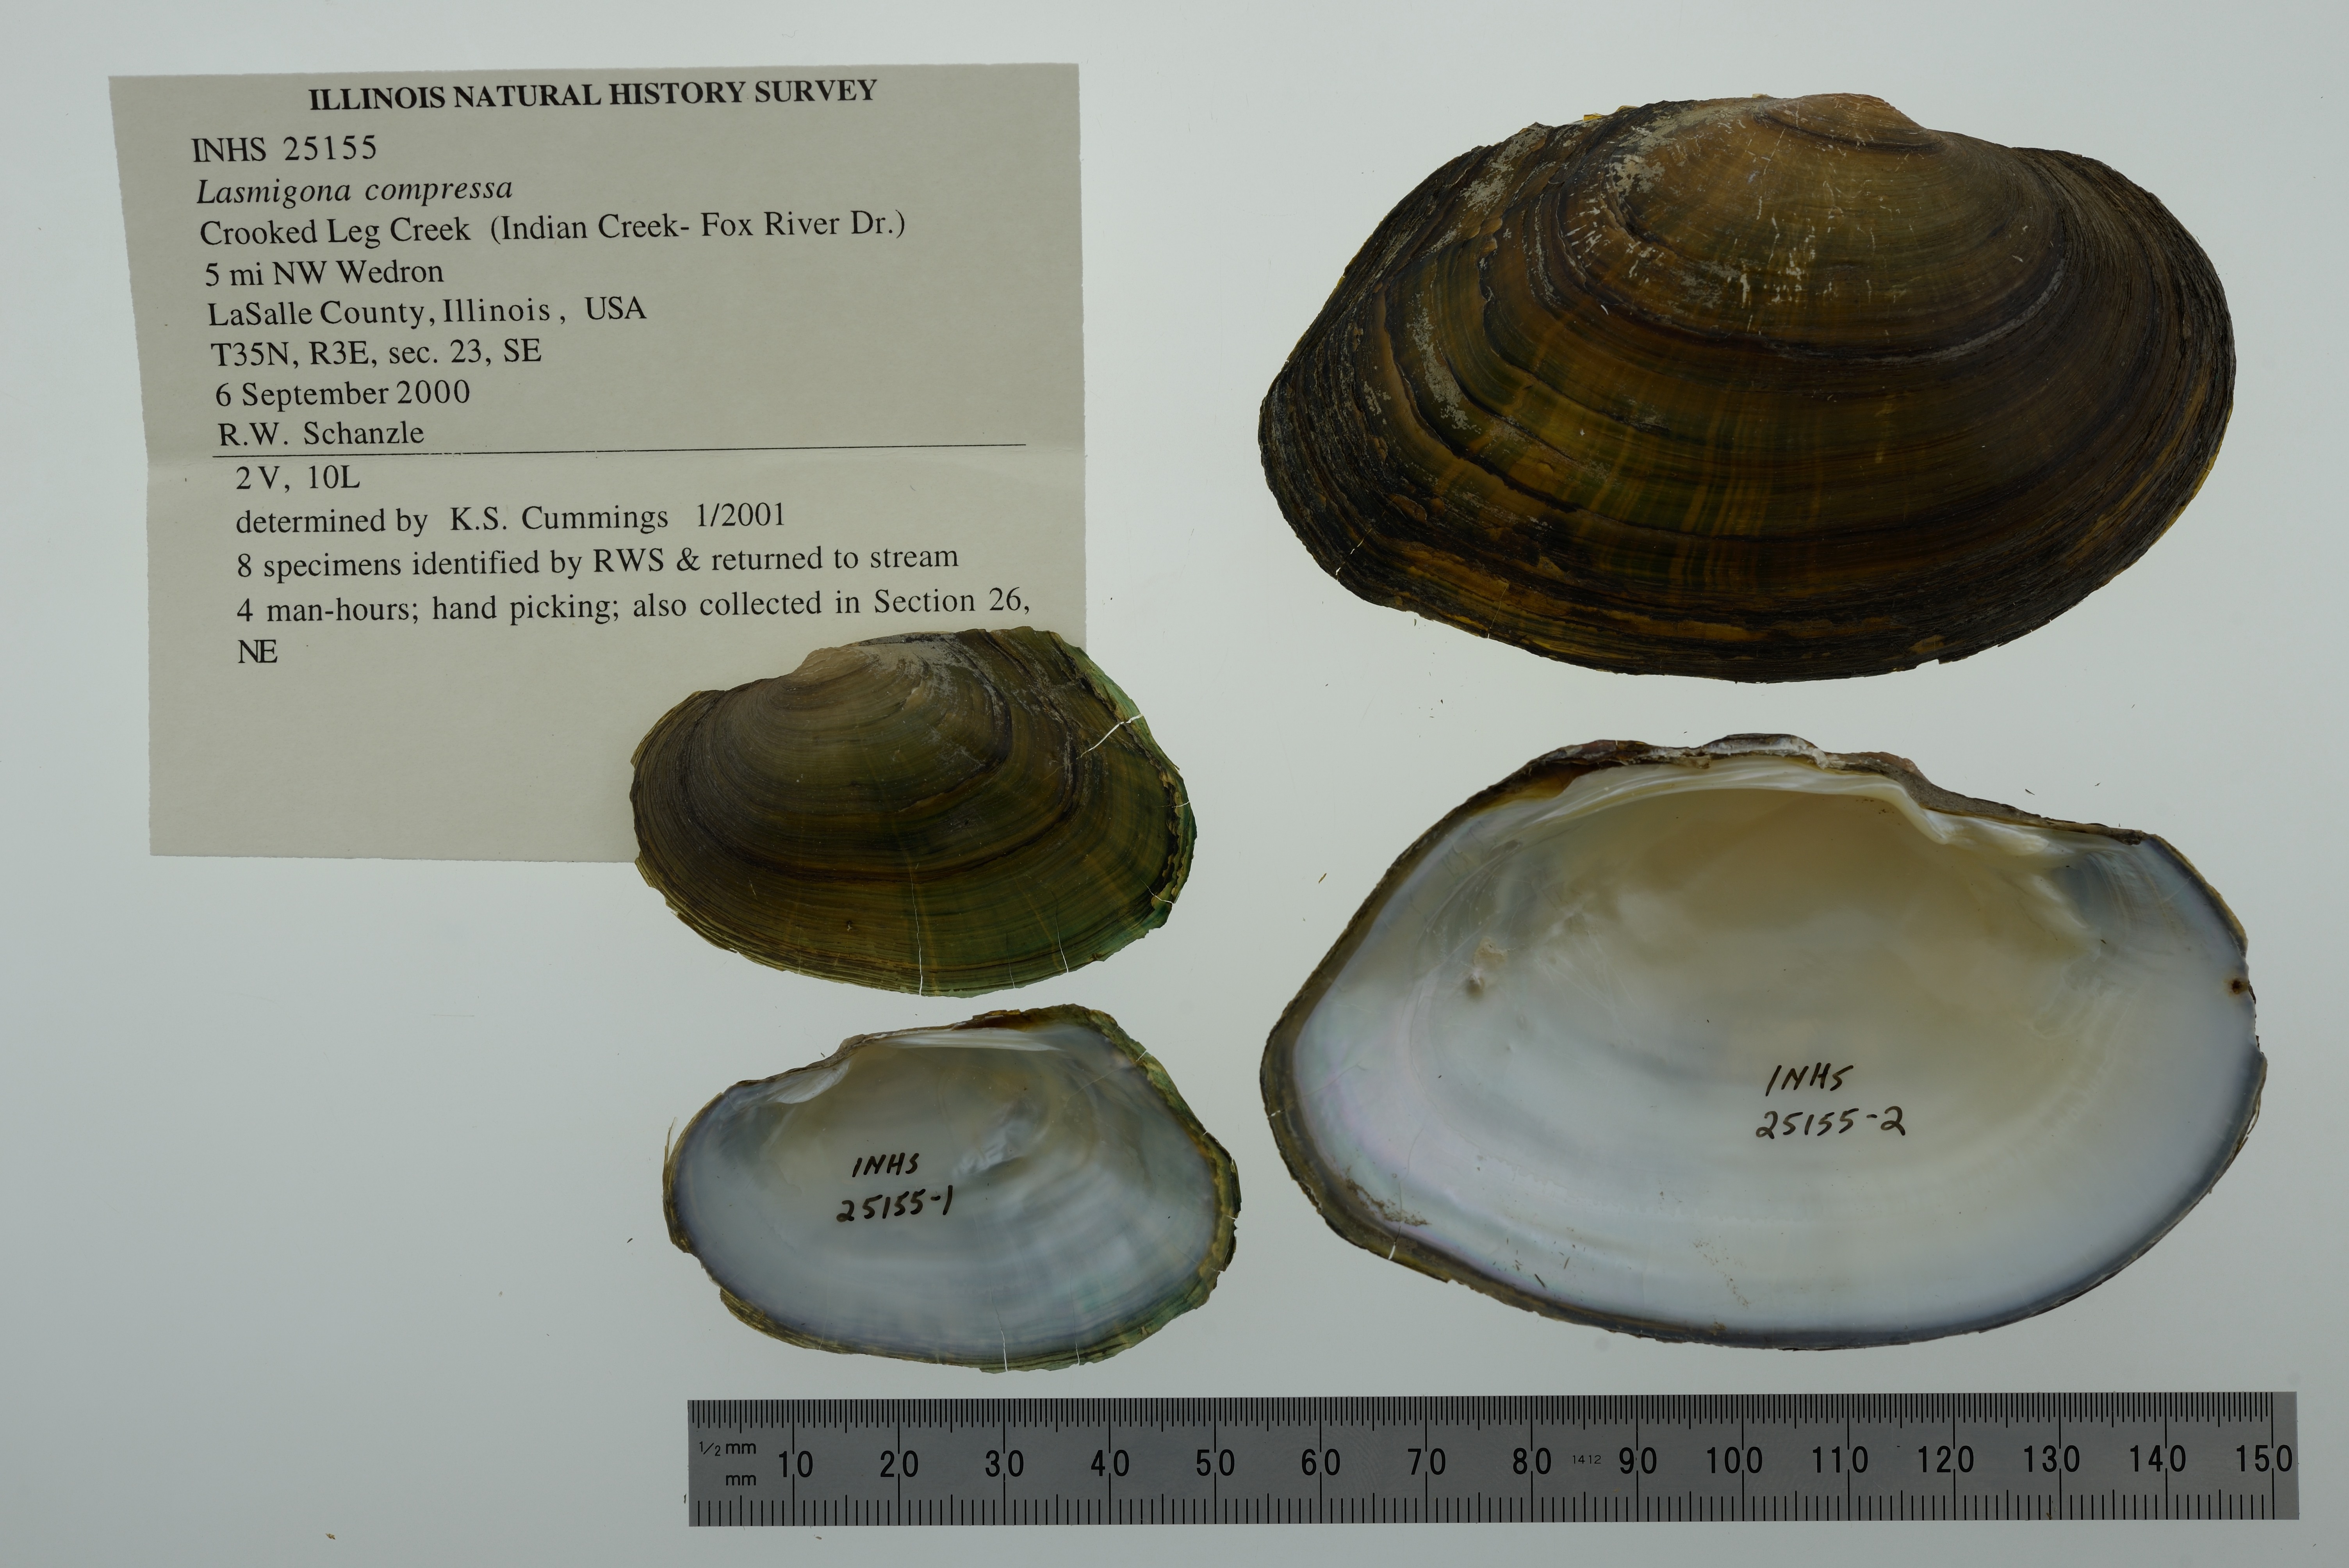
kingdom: Animalia
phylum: Mollusca
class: Bivalvia
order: Unionida
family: Unionidae
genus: Lasmigona
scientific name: Lasmigona compressa
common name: Creek heelsplitter
